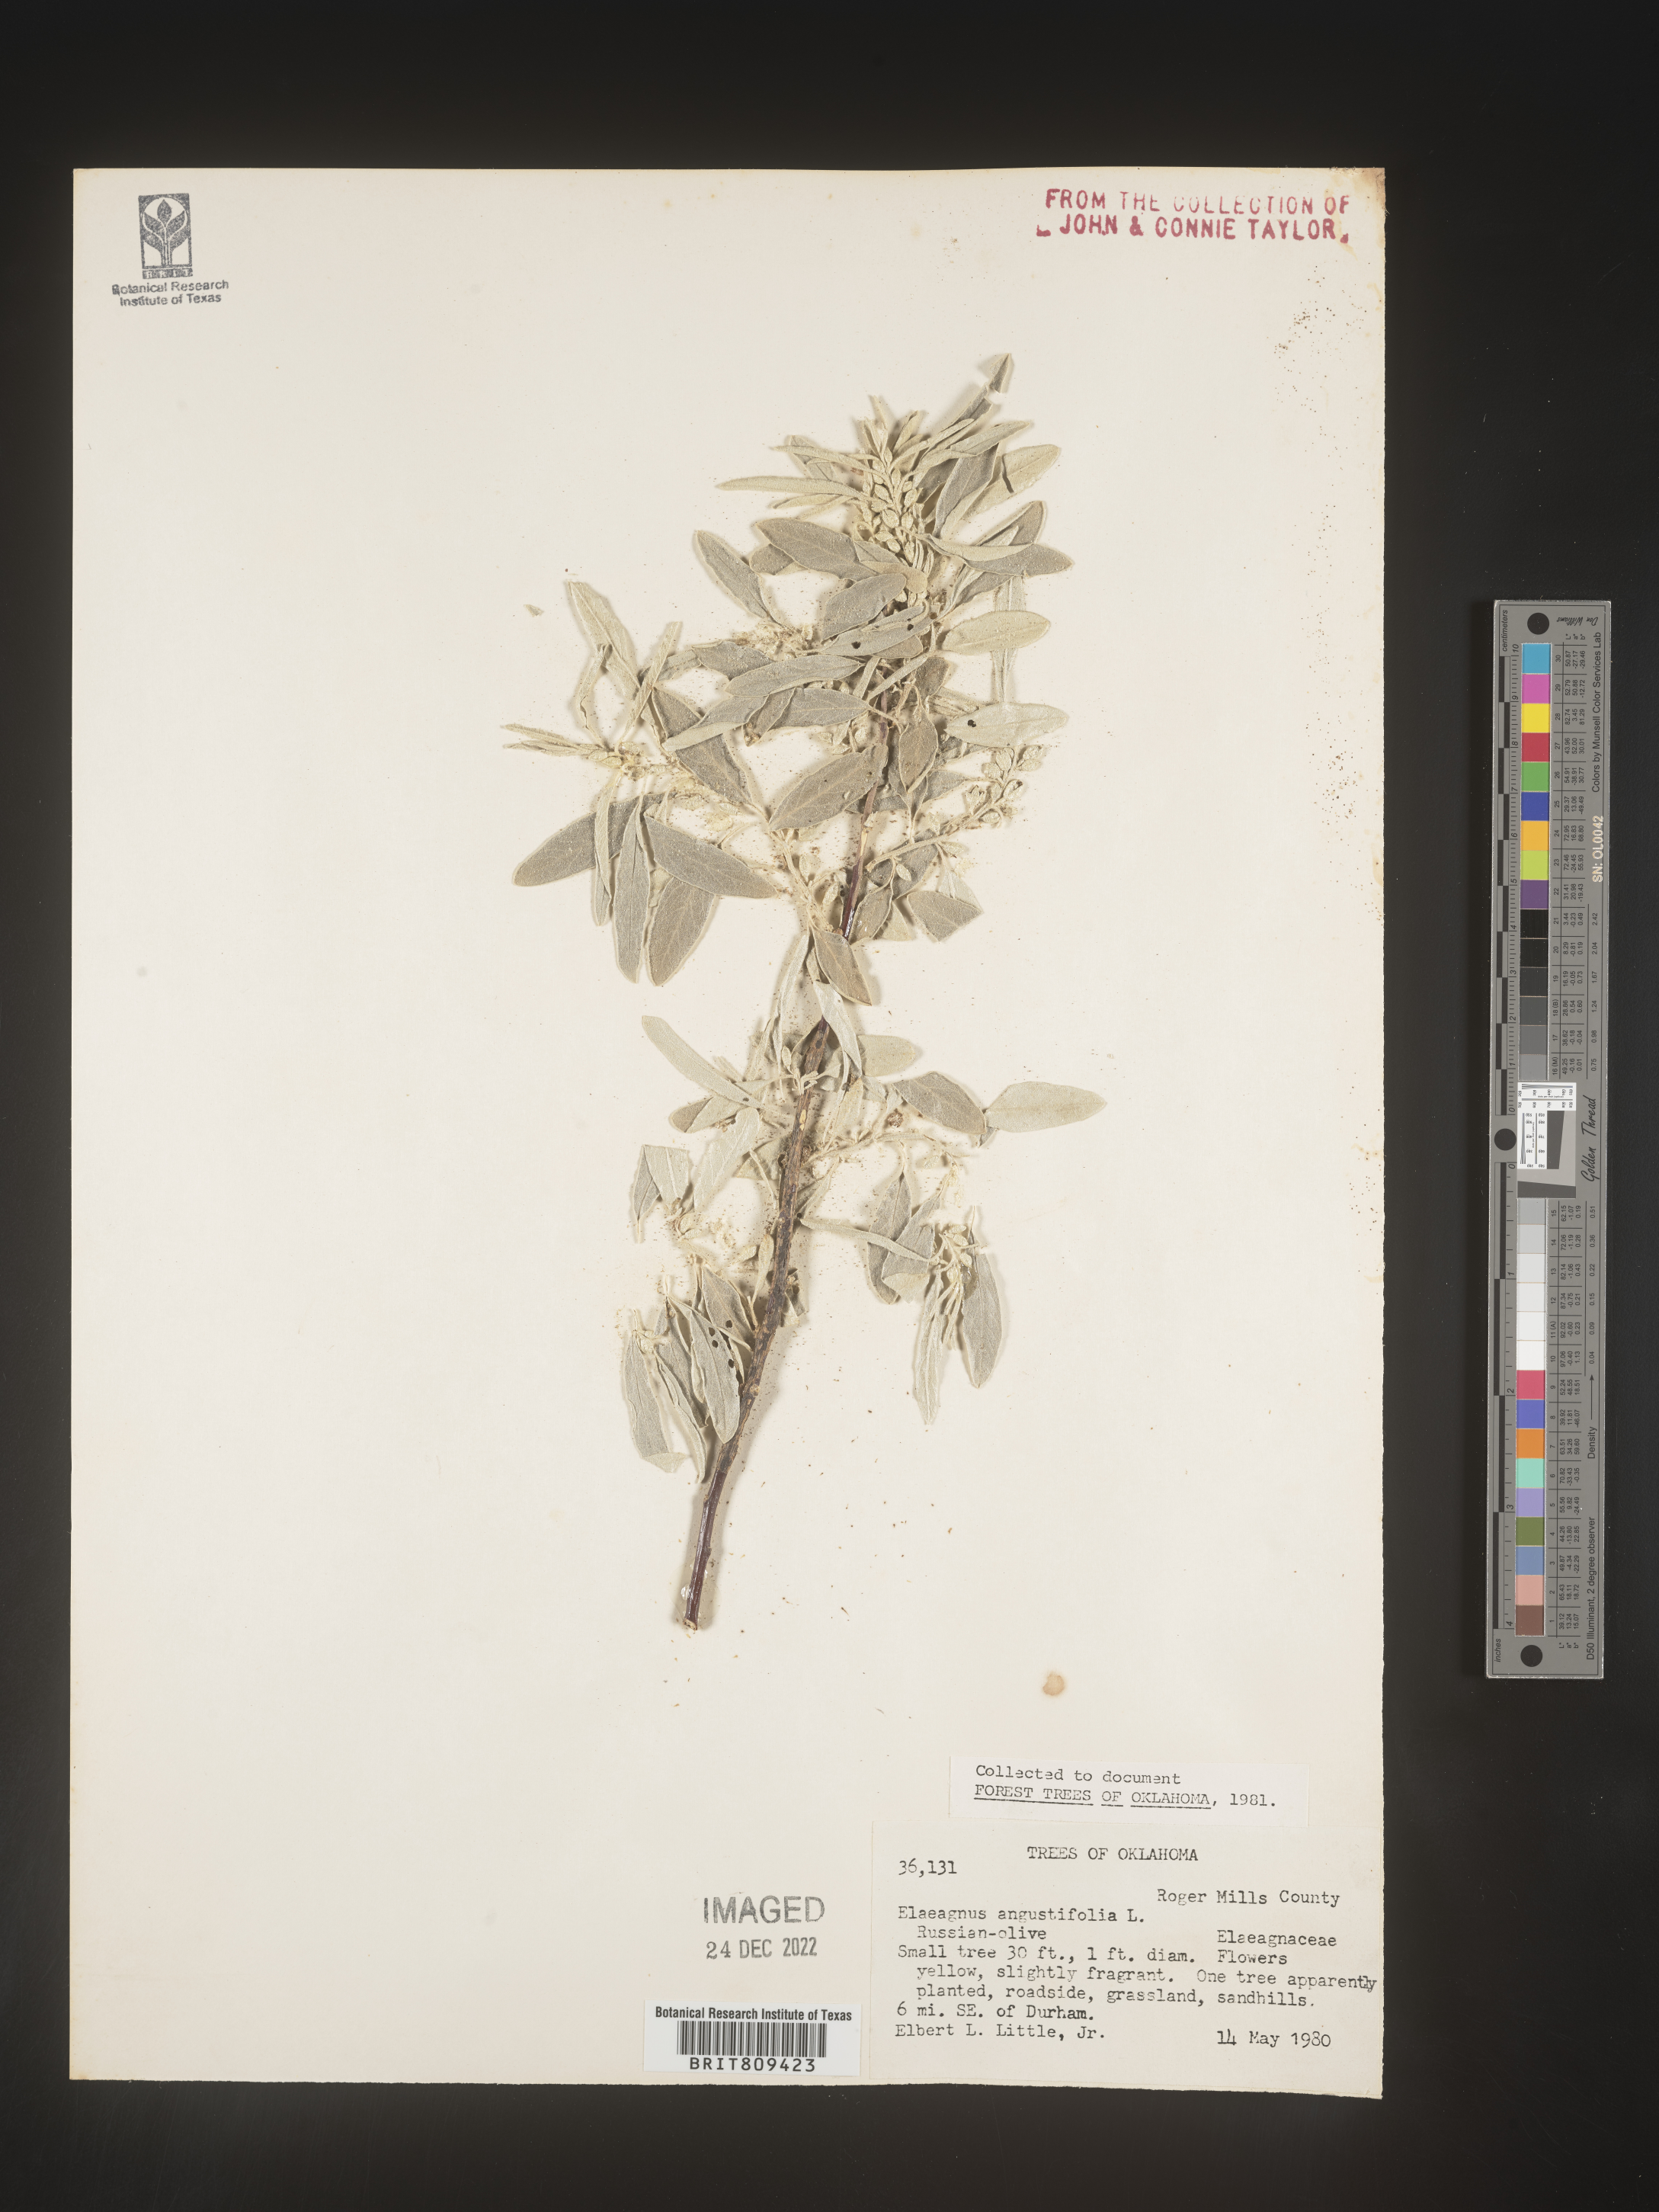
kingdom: Plantae
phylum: Tracheophyta
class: Magnoliopsida
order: Rosales
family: Elaeagnaceae
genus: Elaeagnus
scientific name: Elaeagnus
